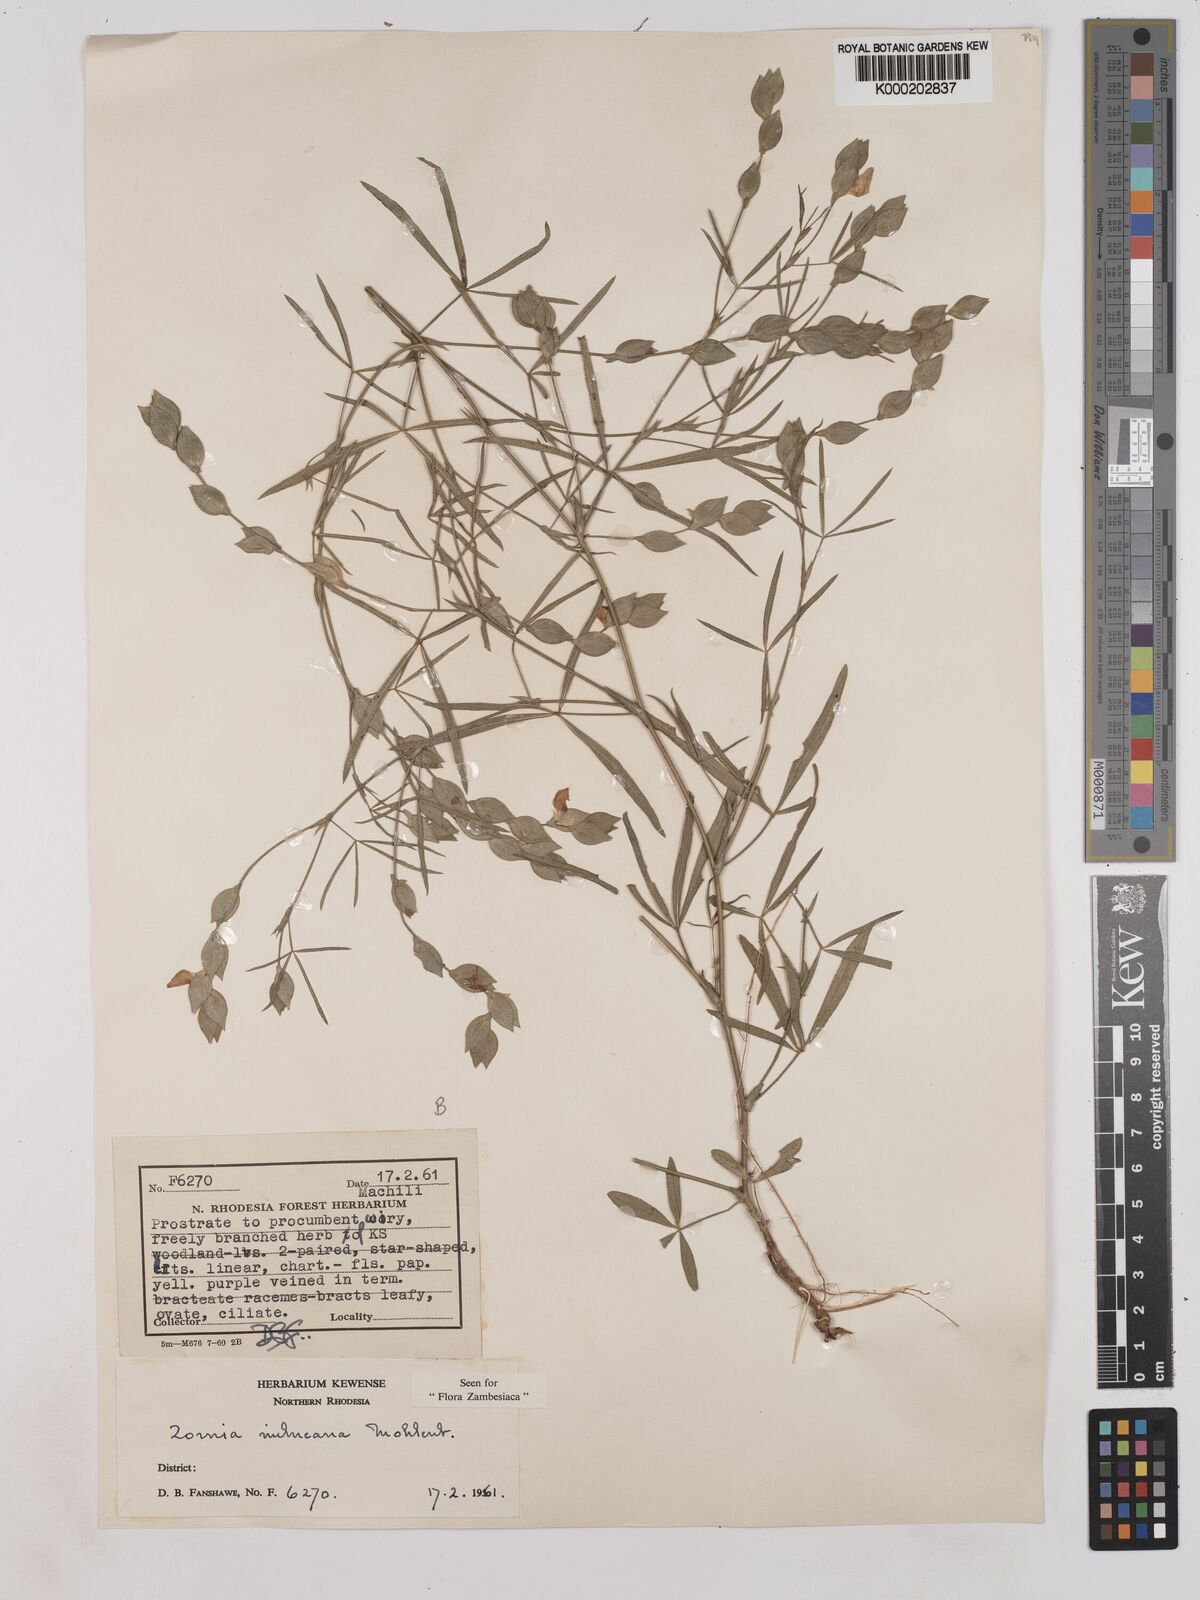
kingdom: Plantae
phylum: Tracheophyta
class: Magnoliopsida
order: Fabales
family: Fabaceae
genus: Zornia
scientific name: Zornia milneana
